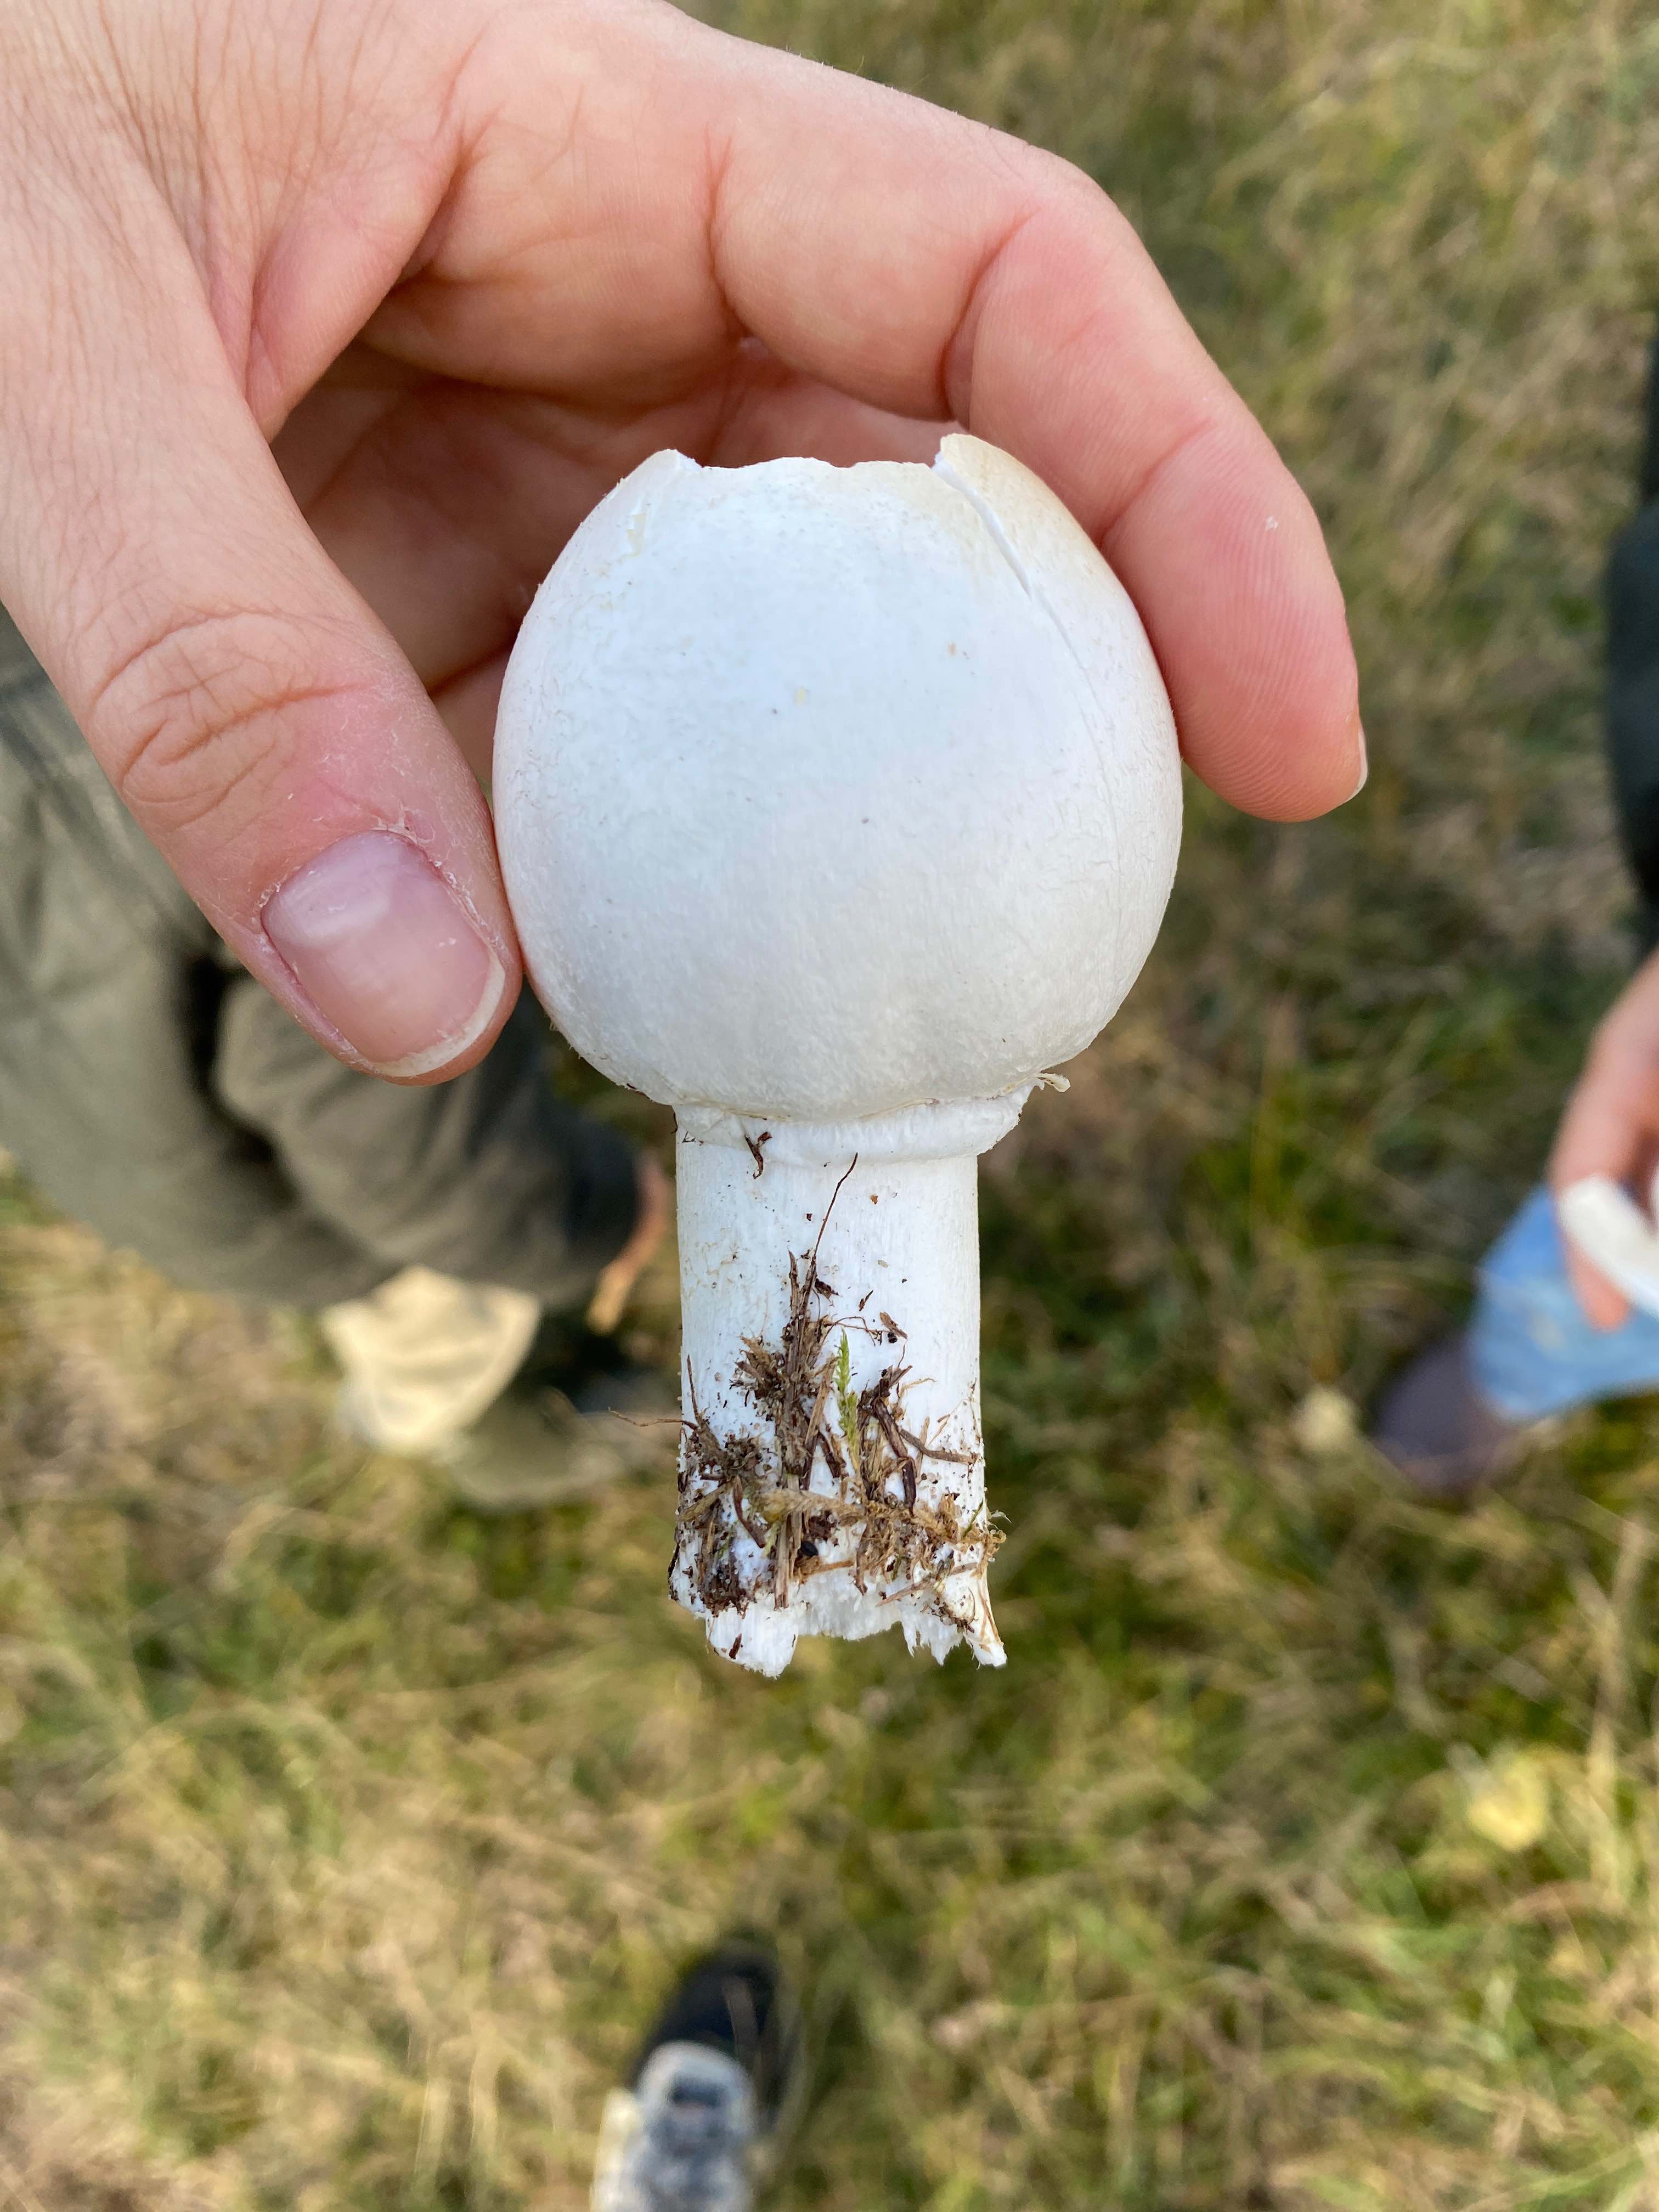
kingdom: Fungi
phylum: Basidiomycota
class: Agaricomycetes
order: Agaricales
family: Agaricaceae
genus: Agaricus
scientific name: Agaricus
